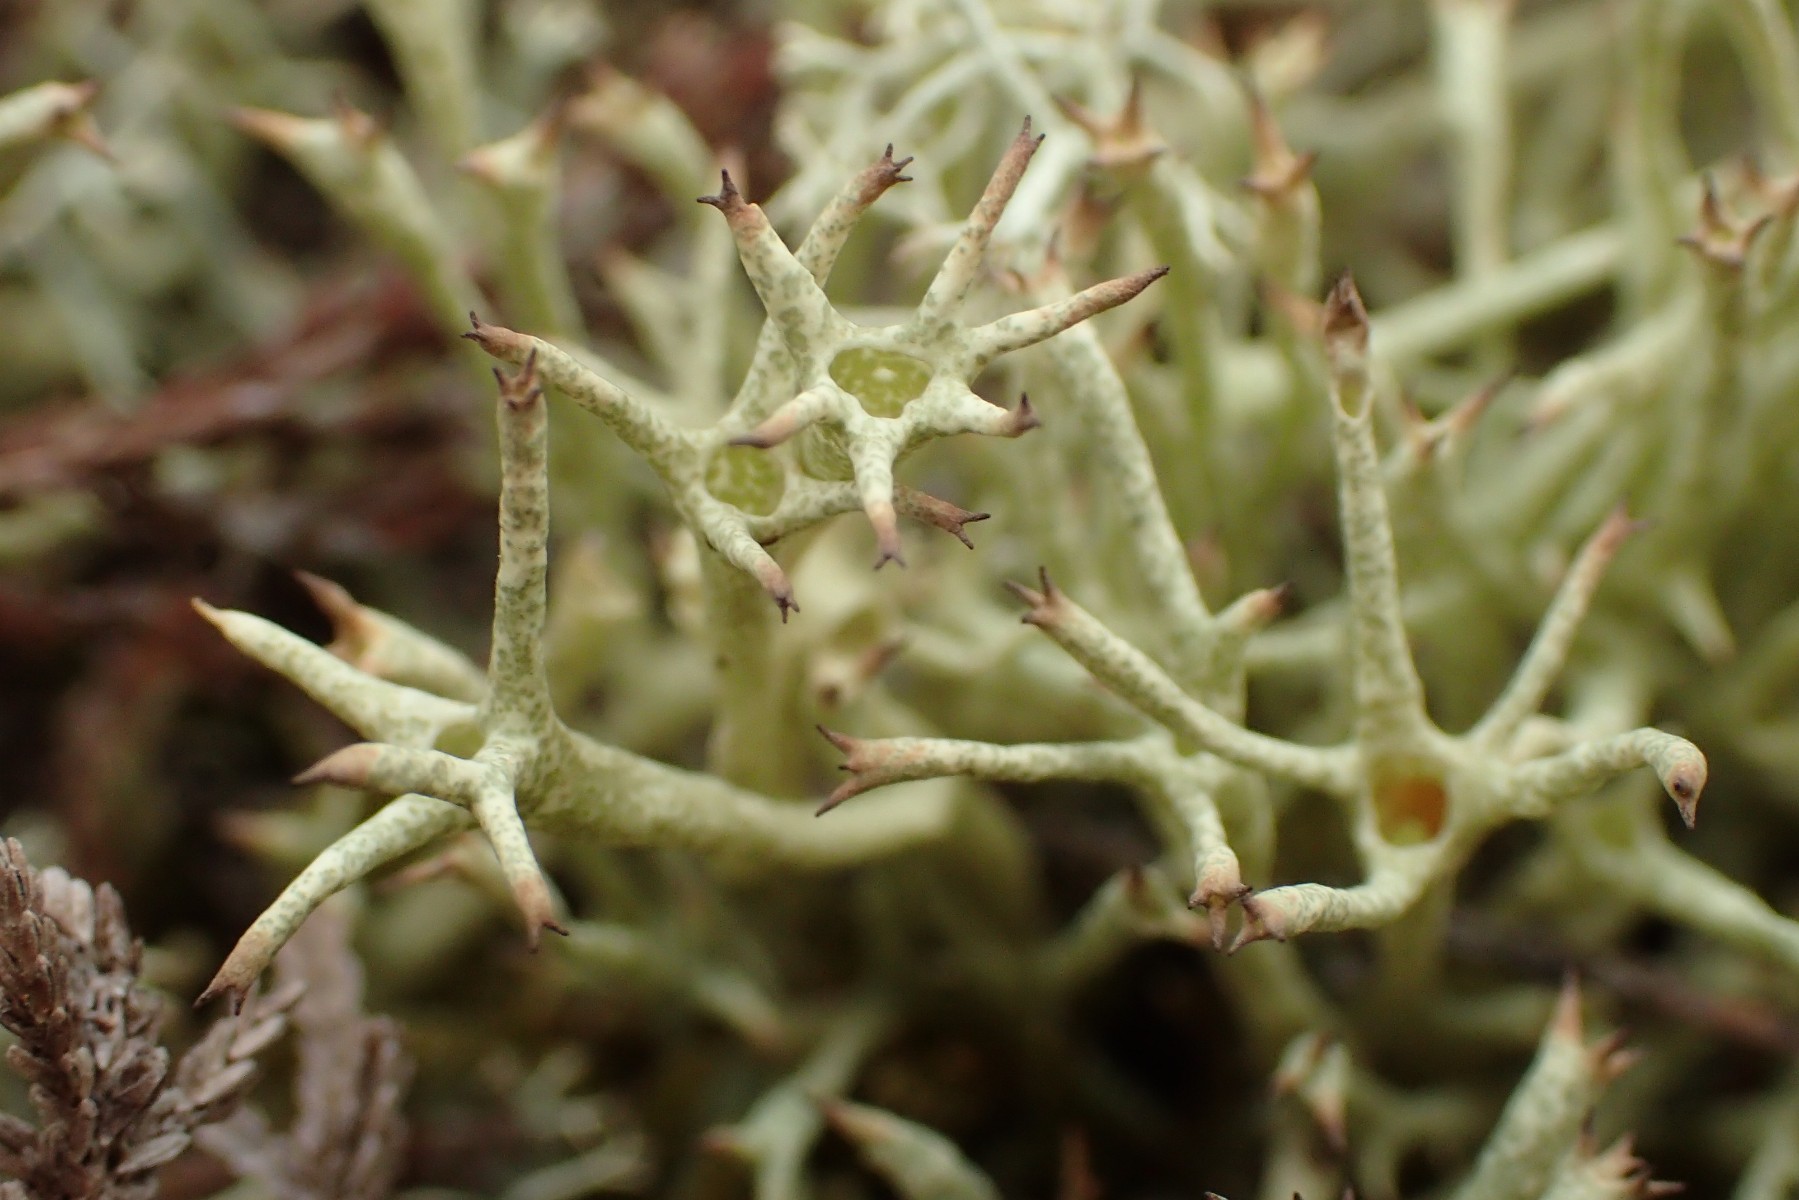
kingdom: Fungi
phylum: Ascomycota
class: Lecanoromycetes
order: Lecanorales
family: Cladoniaceae
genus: Cladonia
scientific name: Cladonia uncialis
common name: pigget bægerlav
